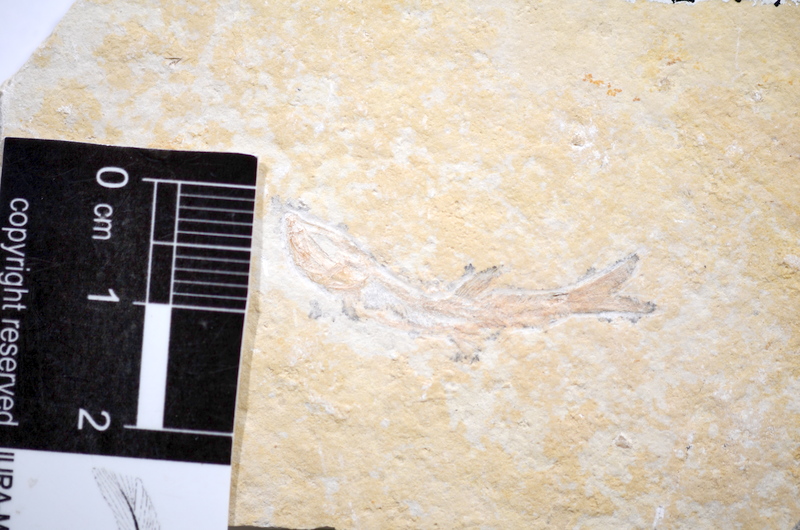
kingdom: Animalia
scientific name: Animalia
